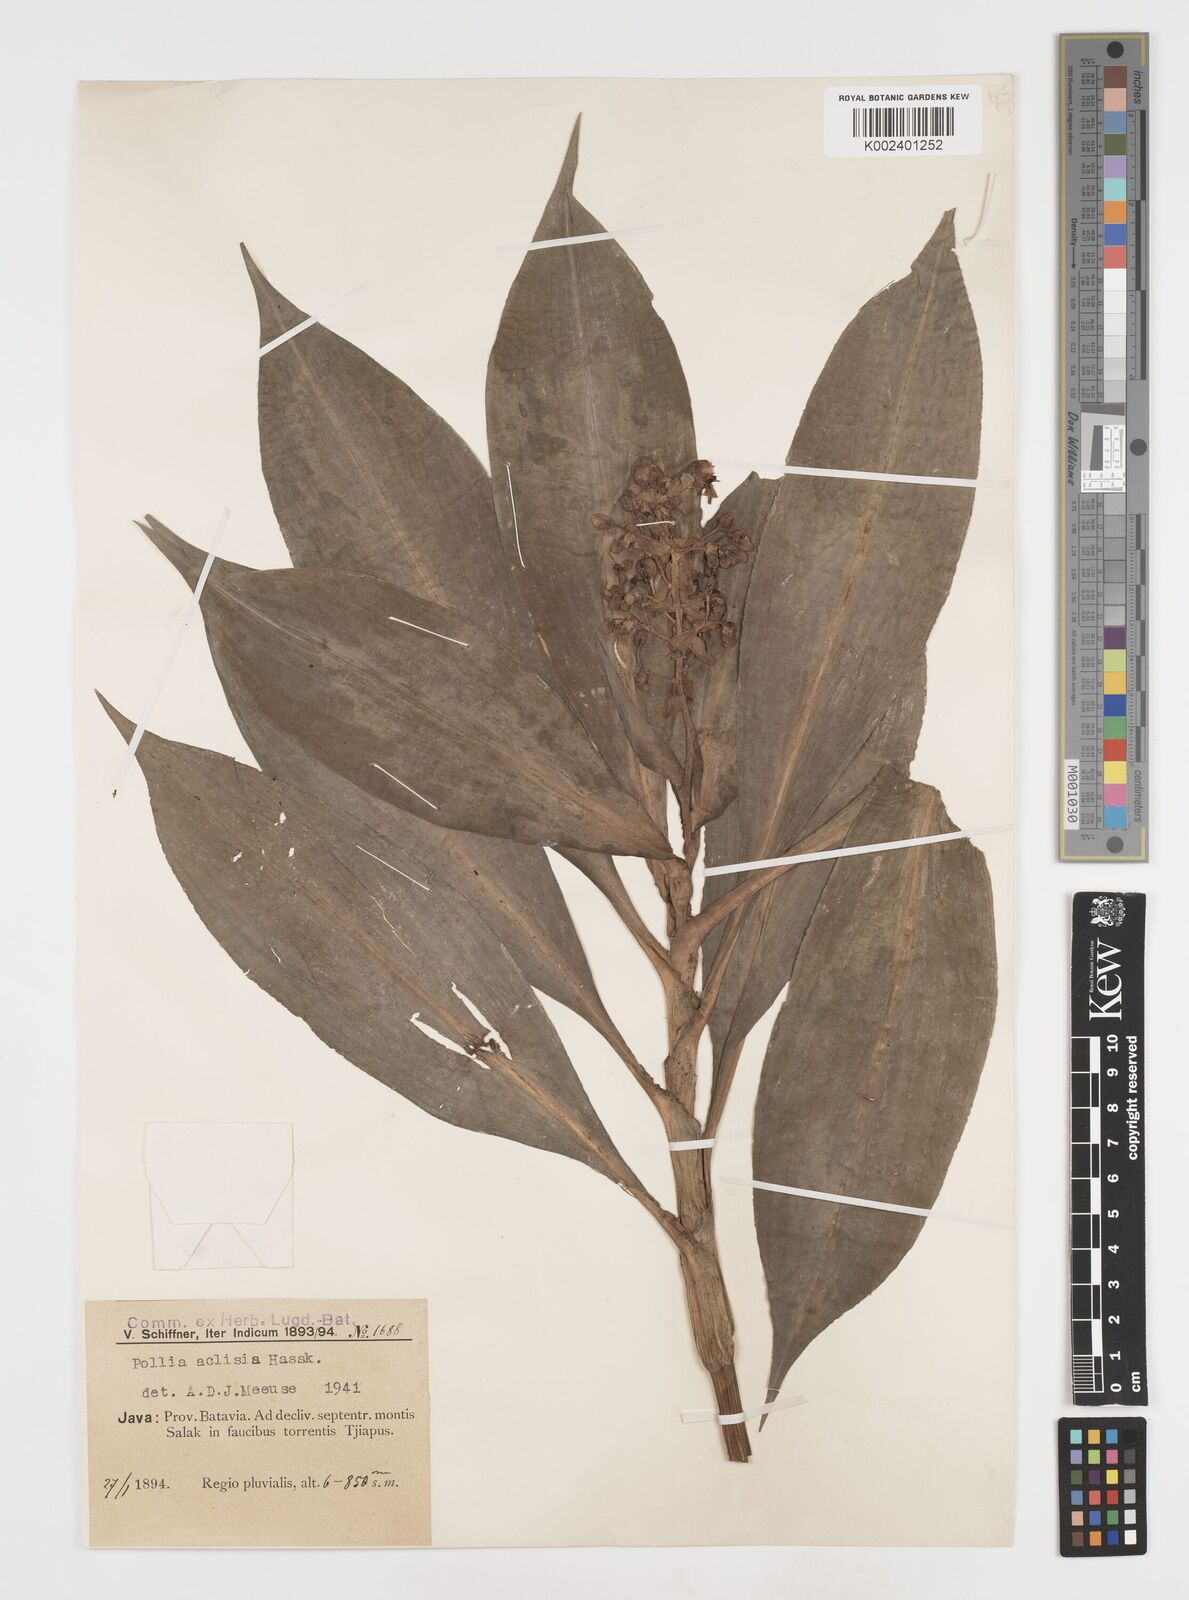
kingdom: Plantae
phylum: Tracheophyta
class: Liliopsida
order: Commelinales
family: Commelinaceae
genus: Pollia
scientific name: Pollia hasskarlii
